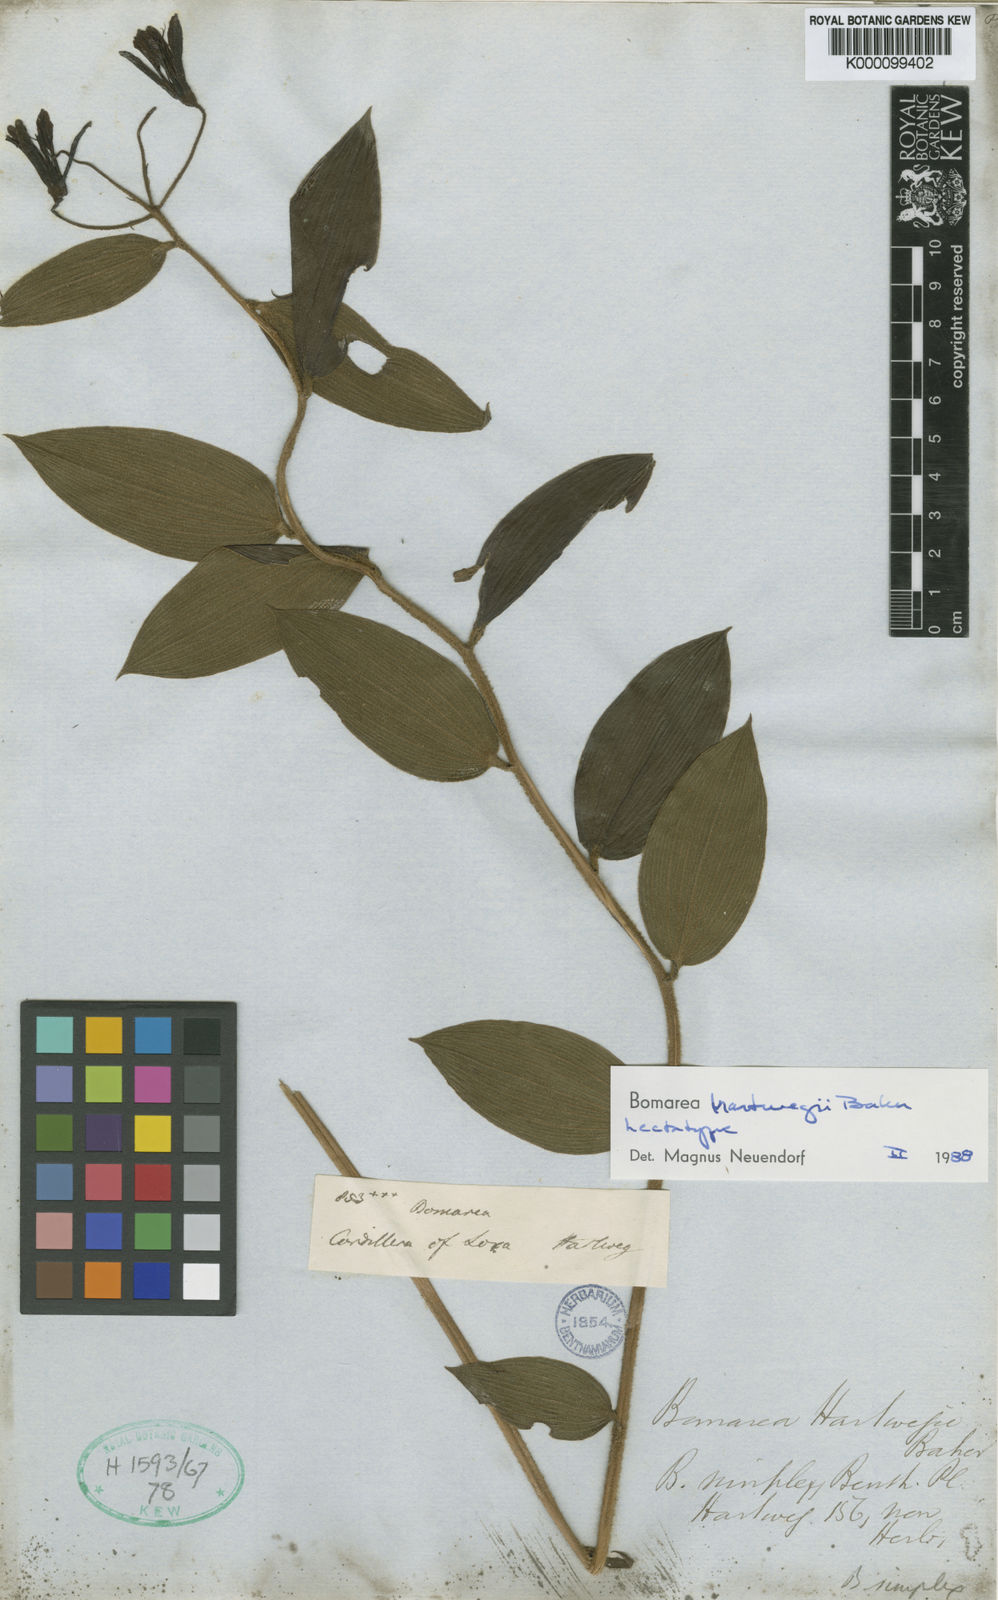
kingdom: Plantae
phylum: Tracheophyta
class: Liliopsida
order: Liliales
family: Alstroemeriaceae
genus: Bomarea
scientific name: Bomarea hartwegii
